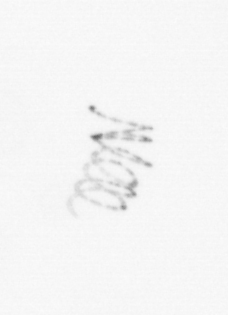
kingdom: Chromista
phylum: Ochrophyta
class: Bacillariophyceae
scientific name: Bacillariophyceae
